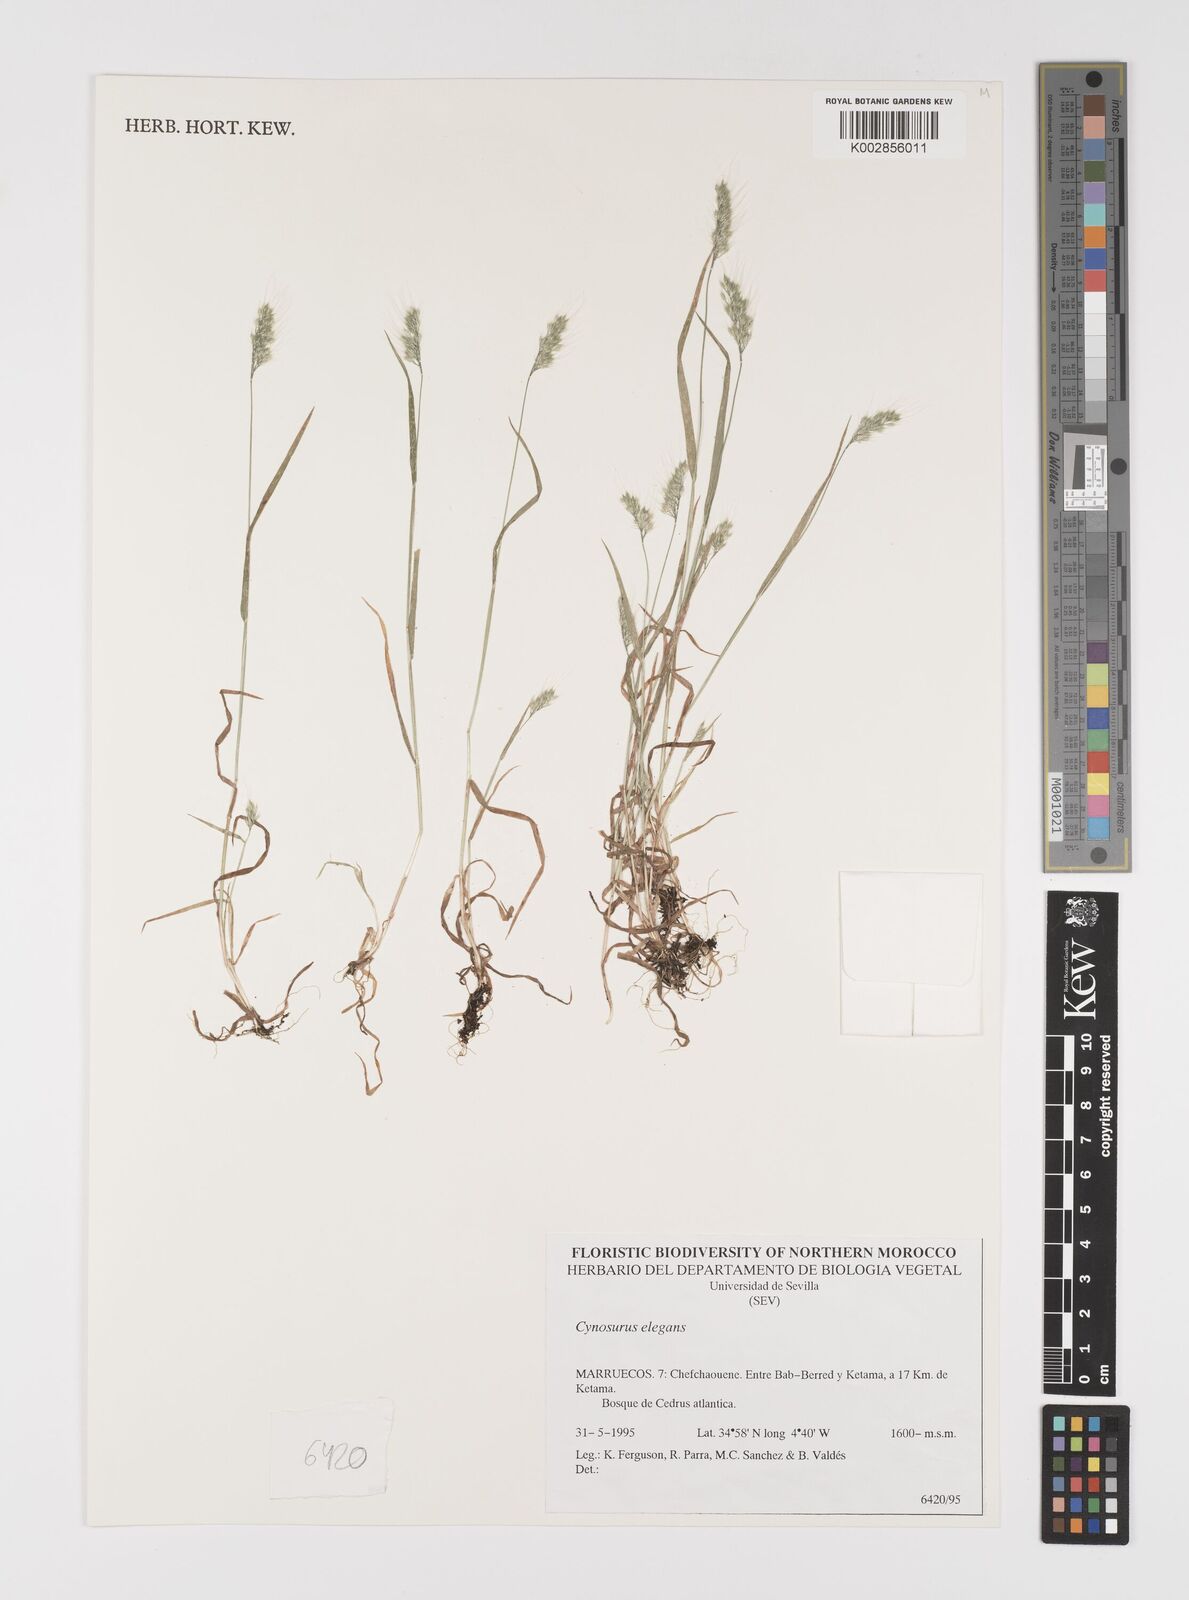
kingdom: Plantae
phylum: Tracheophyta
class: Liliopsida
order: Poales
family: Poaceae
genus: Cynosurus
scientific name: Cynosurus elegans
